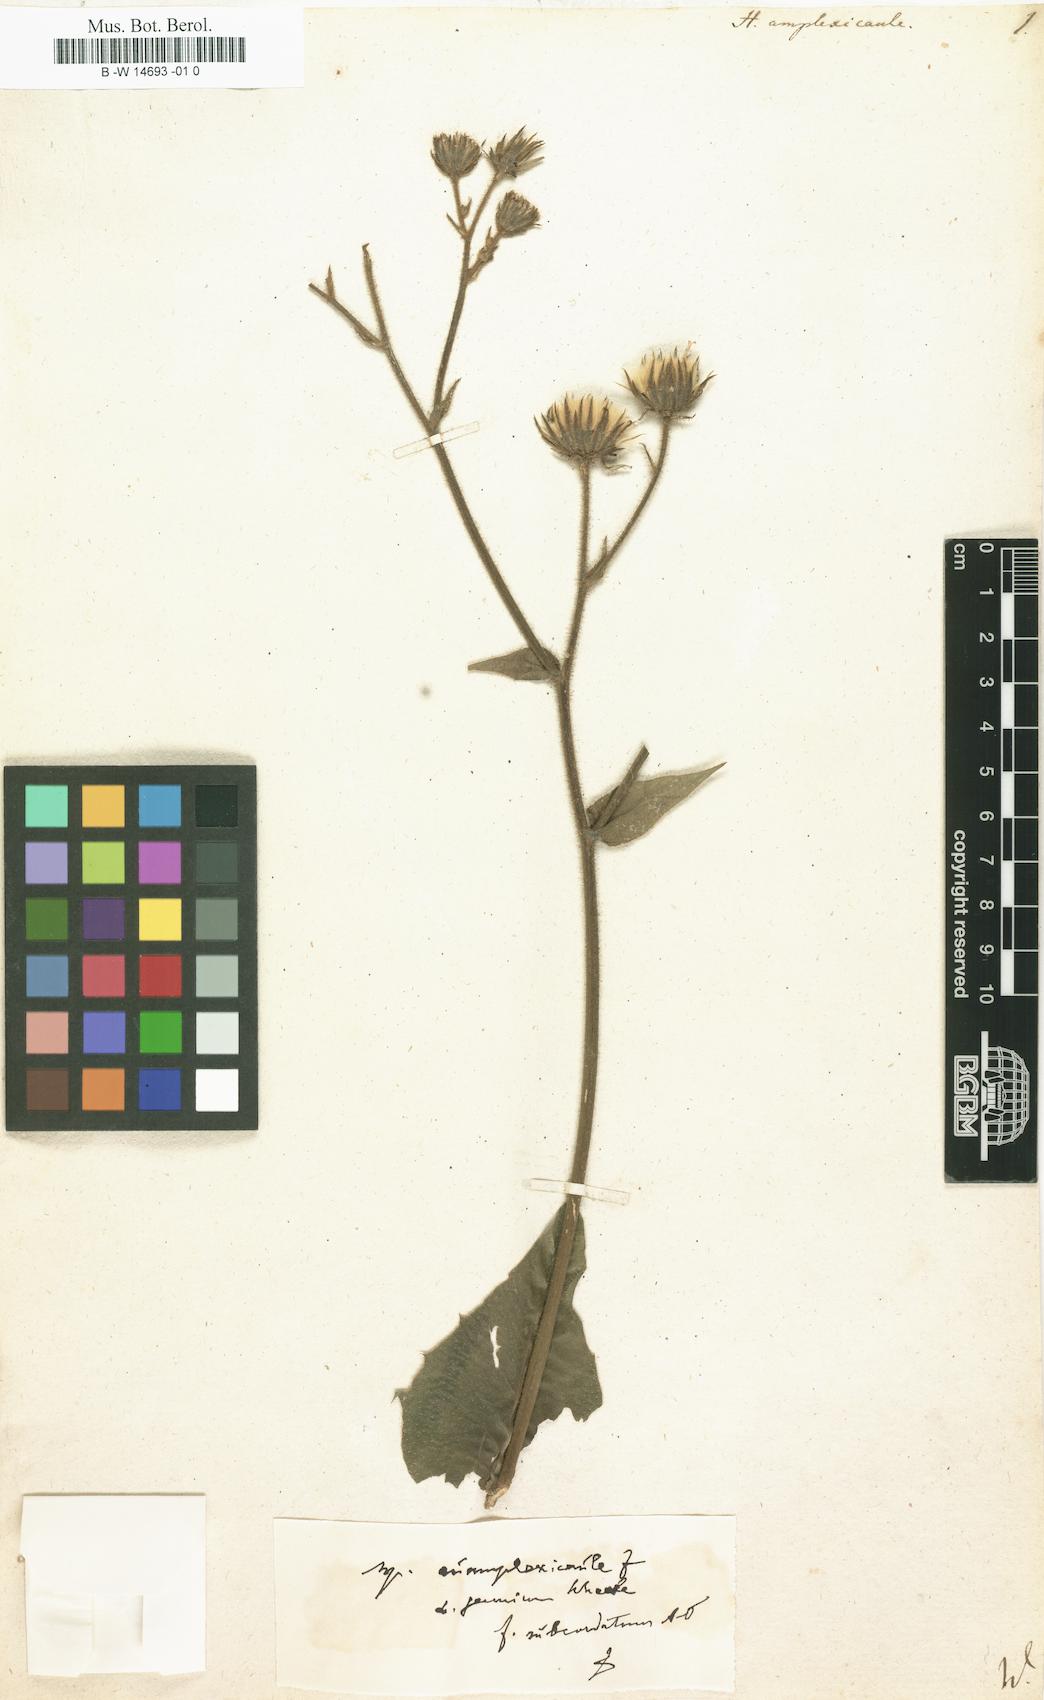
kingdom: Plantae
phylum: Tracheophyta
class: Magnoliopsida
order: Asterales
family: Asteraceae
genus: Hieracium
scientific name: Hieracium amplexicaule
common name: Sticky hawkweed
